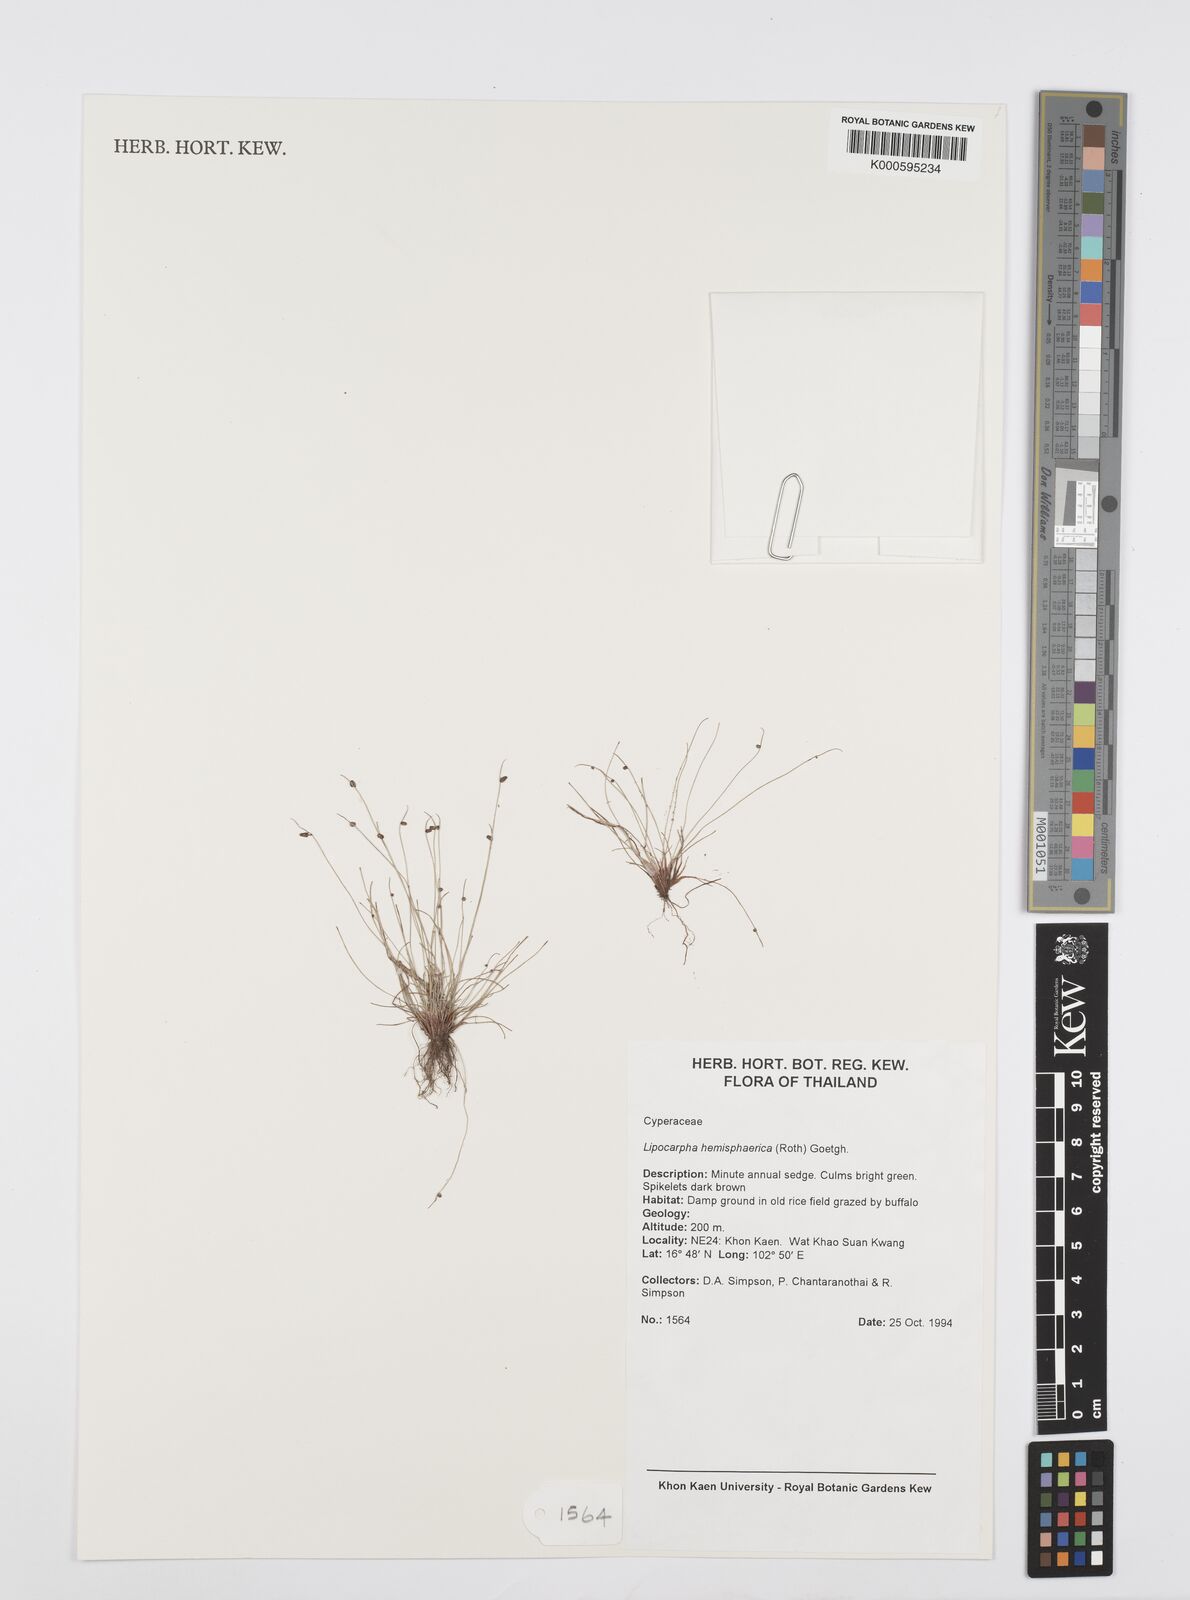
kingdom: Plantae
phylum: Tracheophyta
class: Liliopsida
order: Poales
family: Cyperaceae
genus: Cyperus
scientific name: Cyperus isolepis
